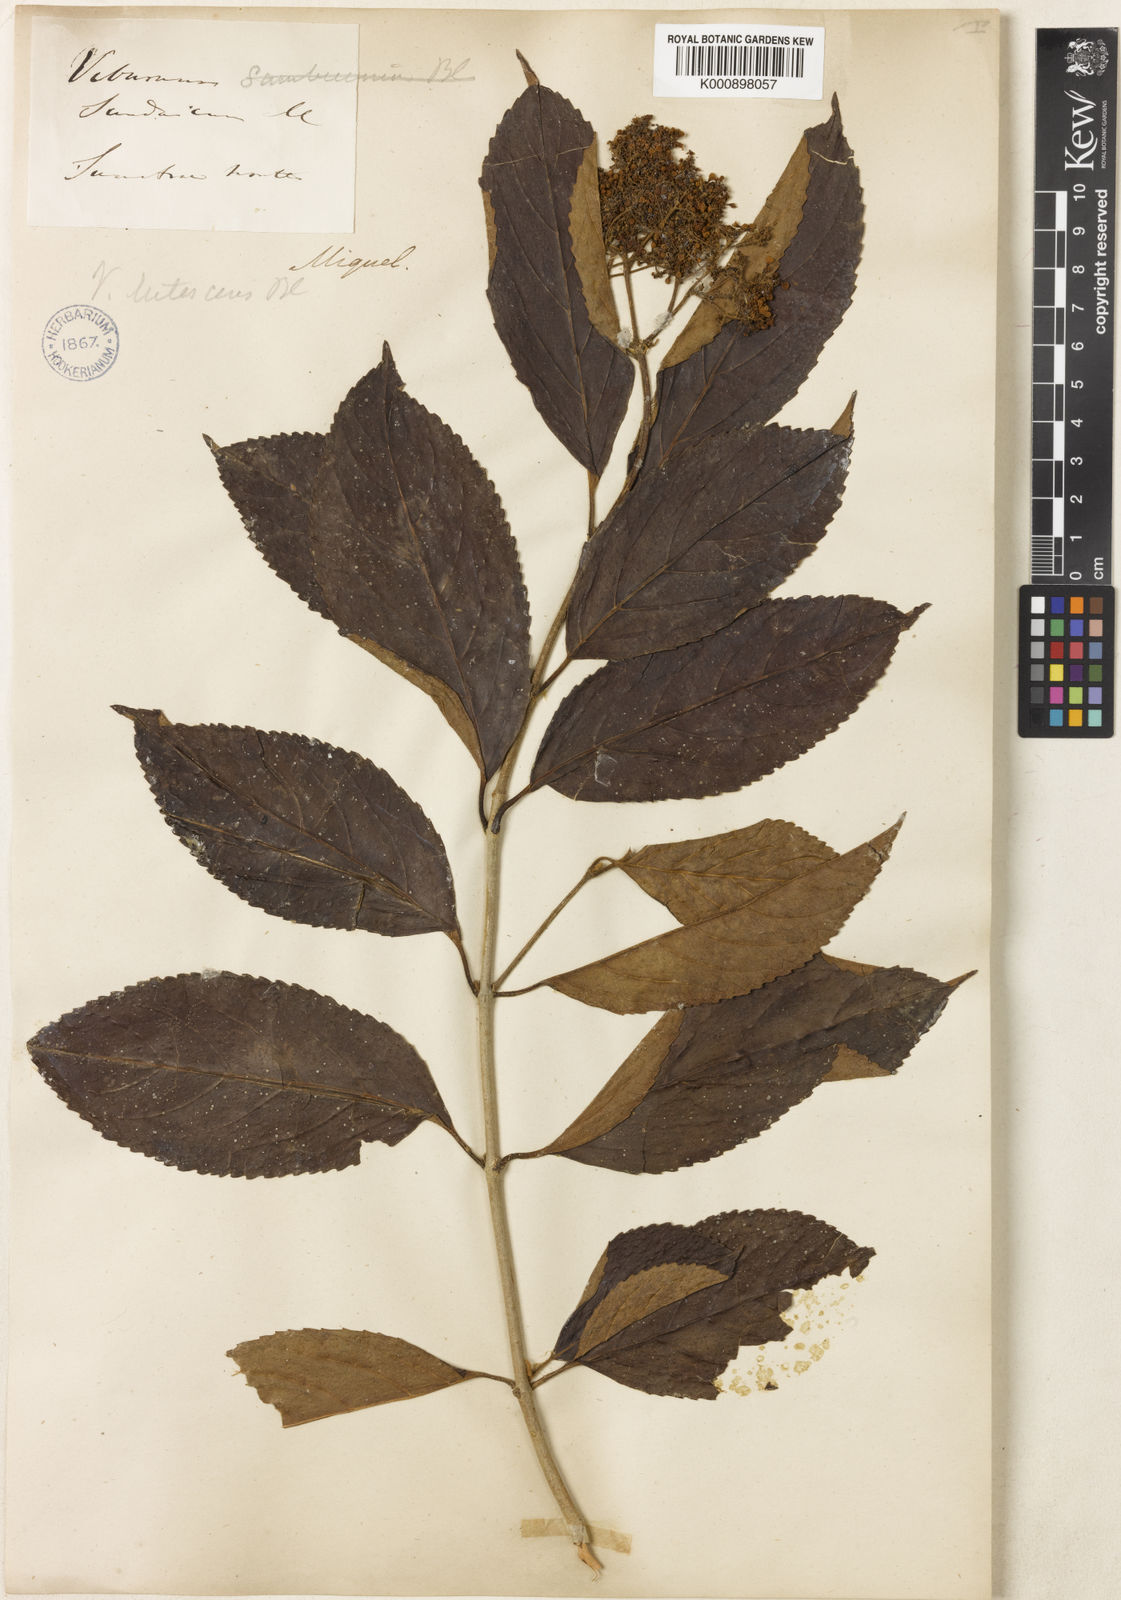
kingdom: Plantae
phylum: Tracheophyta
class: Magnoliopsida
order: Dipsacales
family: Viburnaceae
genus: Viburnum
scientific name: Viburnum lutescens
